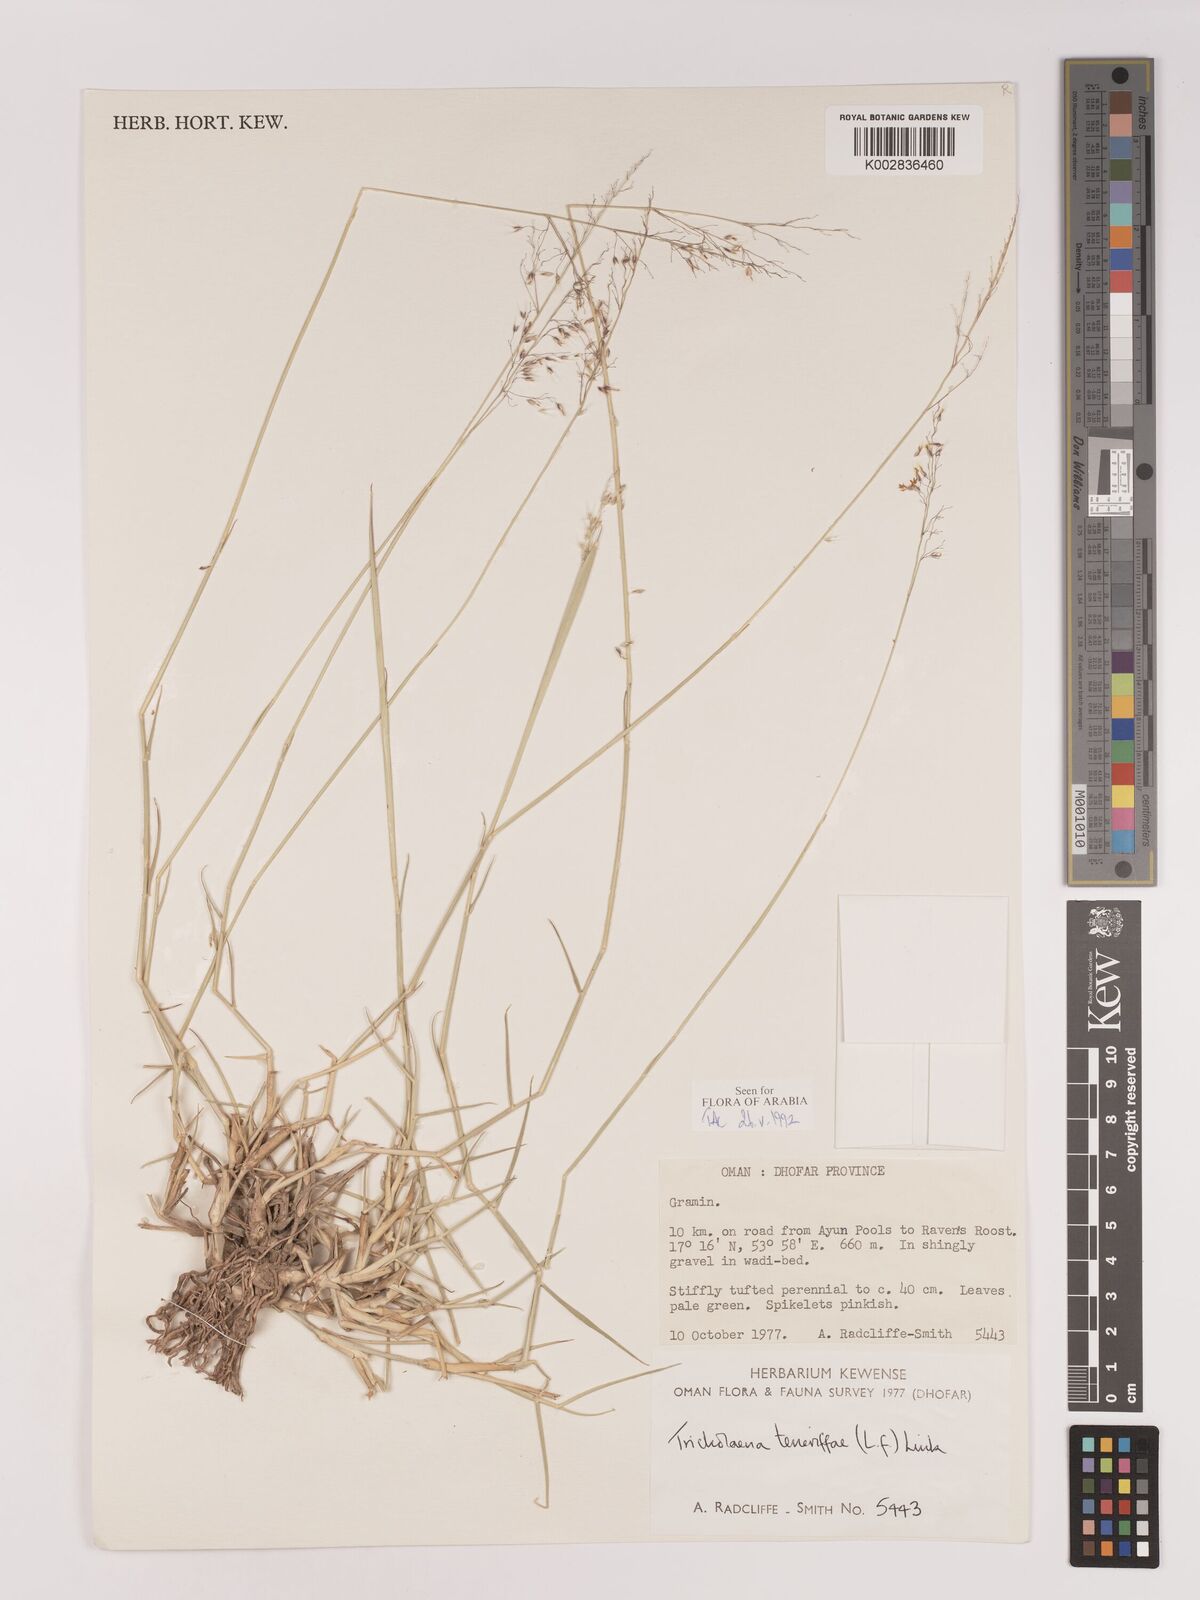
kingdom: Plantae
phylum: Tracheophyta
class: Liliopsida
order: Poales
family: Poaceae
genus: Tricholaena
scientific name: Tricholaena teneriffae
